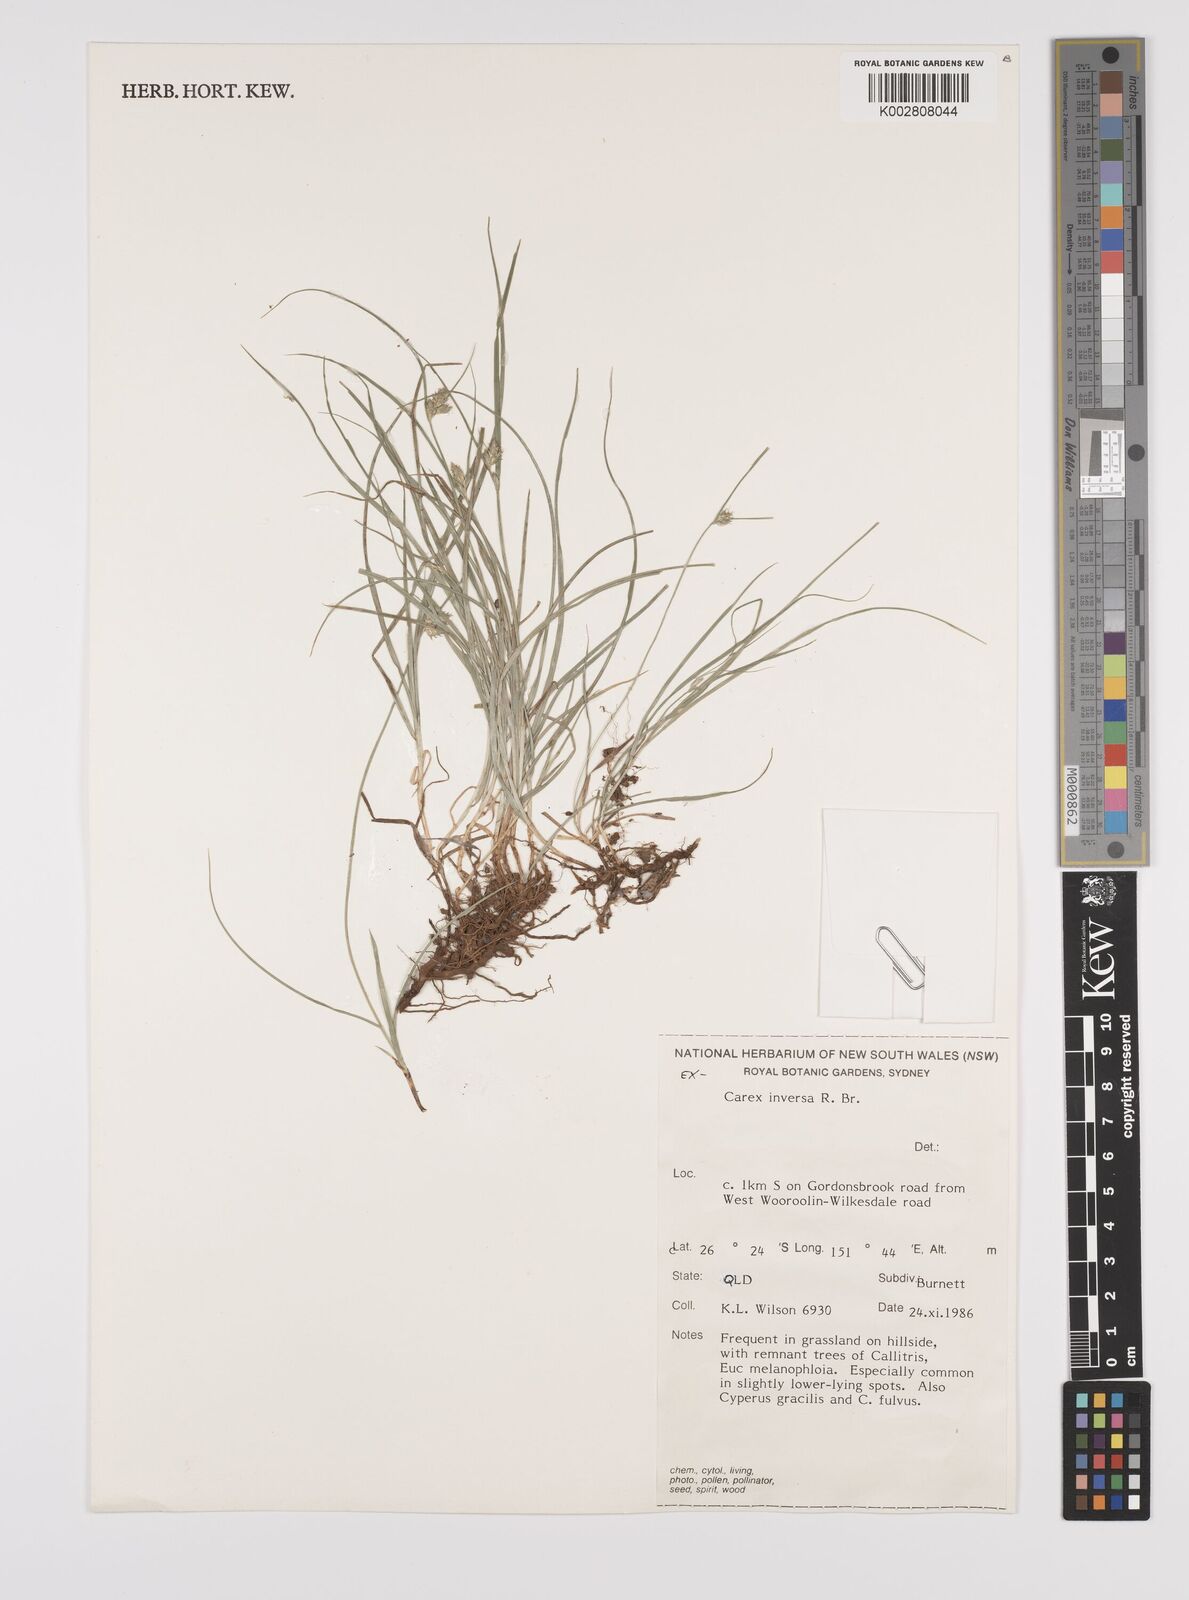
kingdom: Plantae
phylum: Tracheophyta
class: Liliopsida
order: Poales
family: Cyperaceae
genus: Carex
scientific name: Carex inversa
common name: Knob sedge
